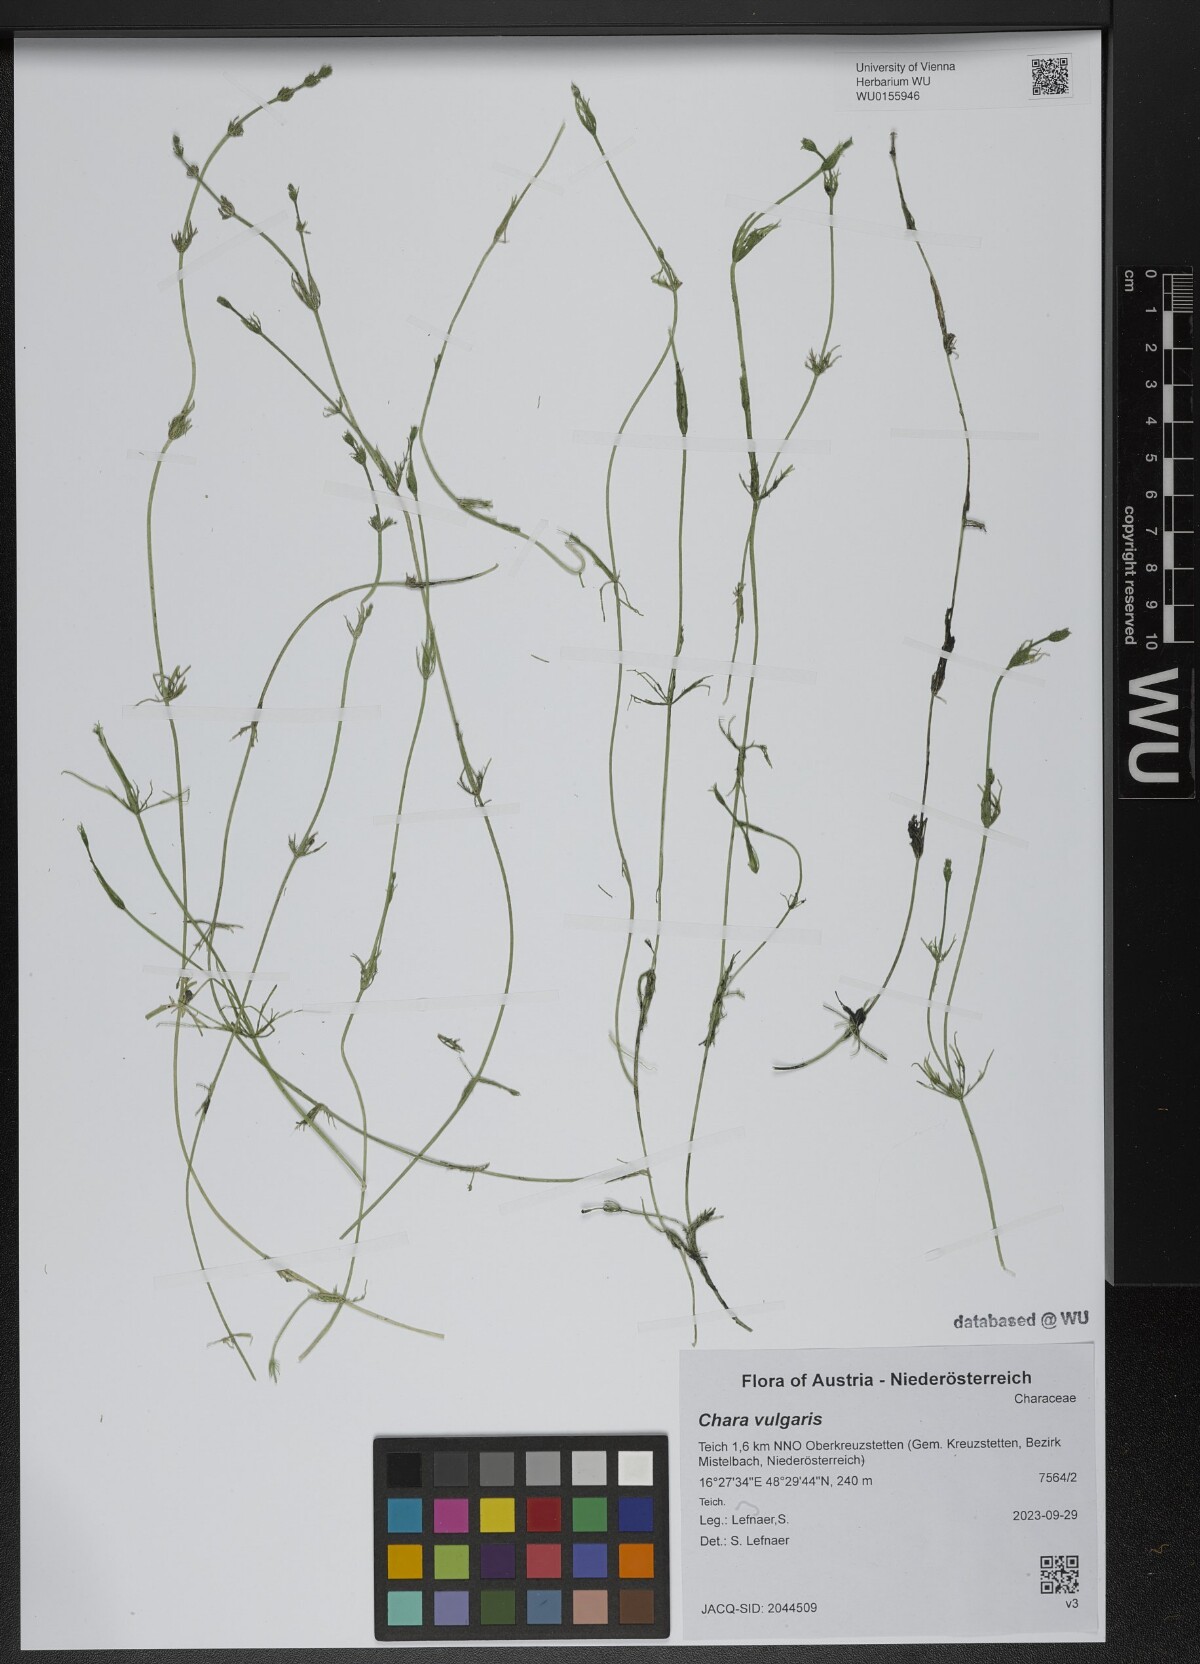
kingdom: Plantae
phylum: Charophyta
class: Charophyceae
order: Charales
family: Characeae
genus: Chara
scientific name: Chara vulgaris
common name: Common stonewort
